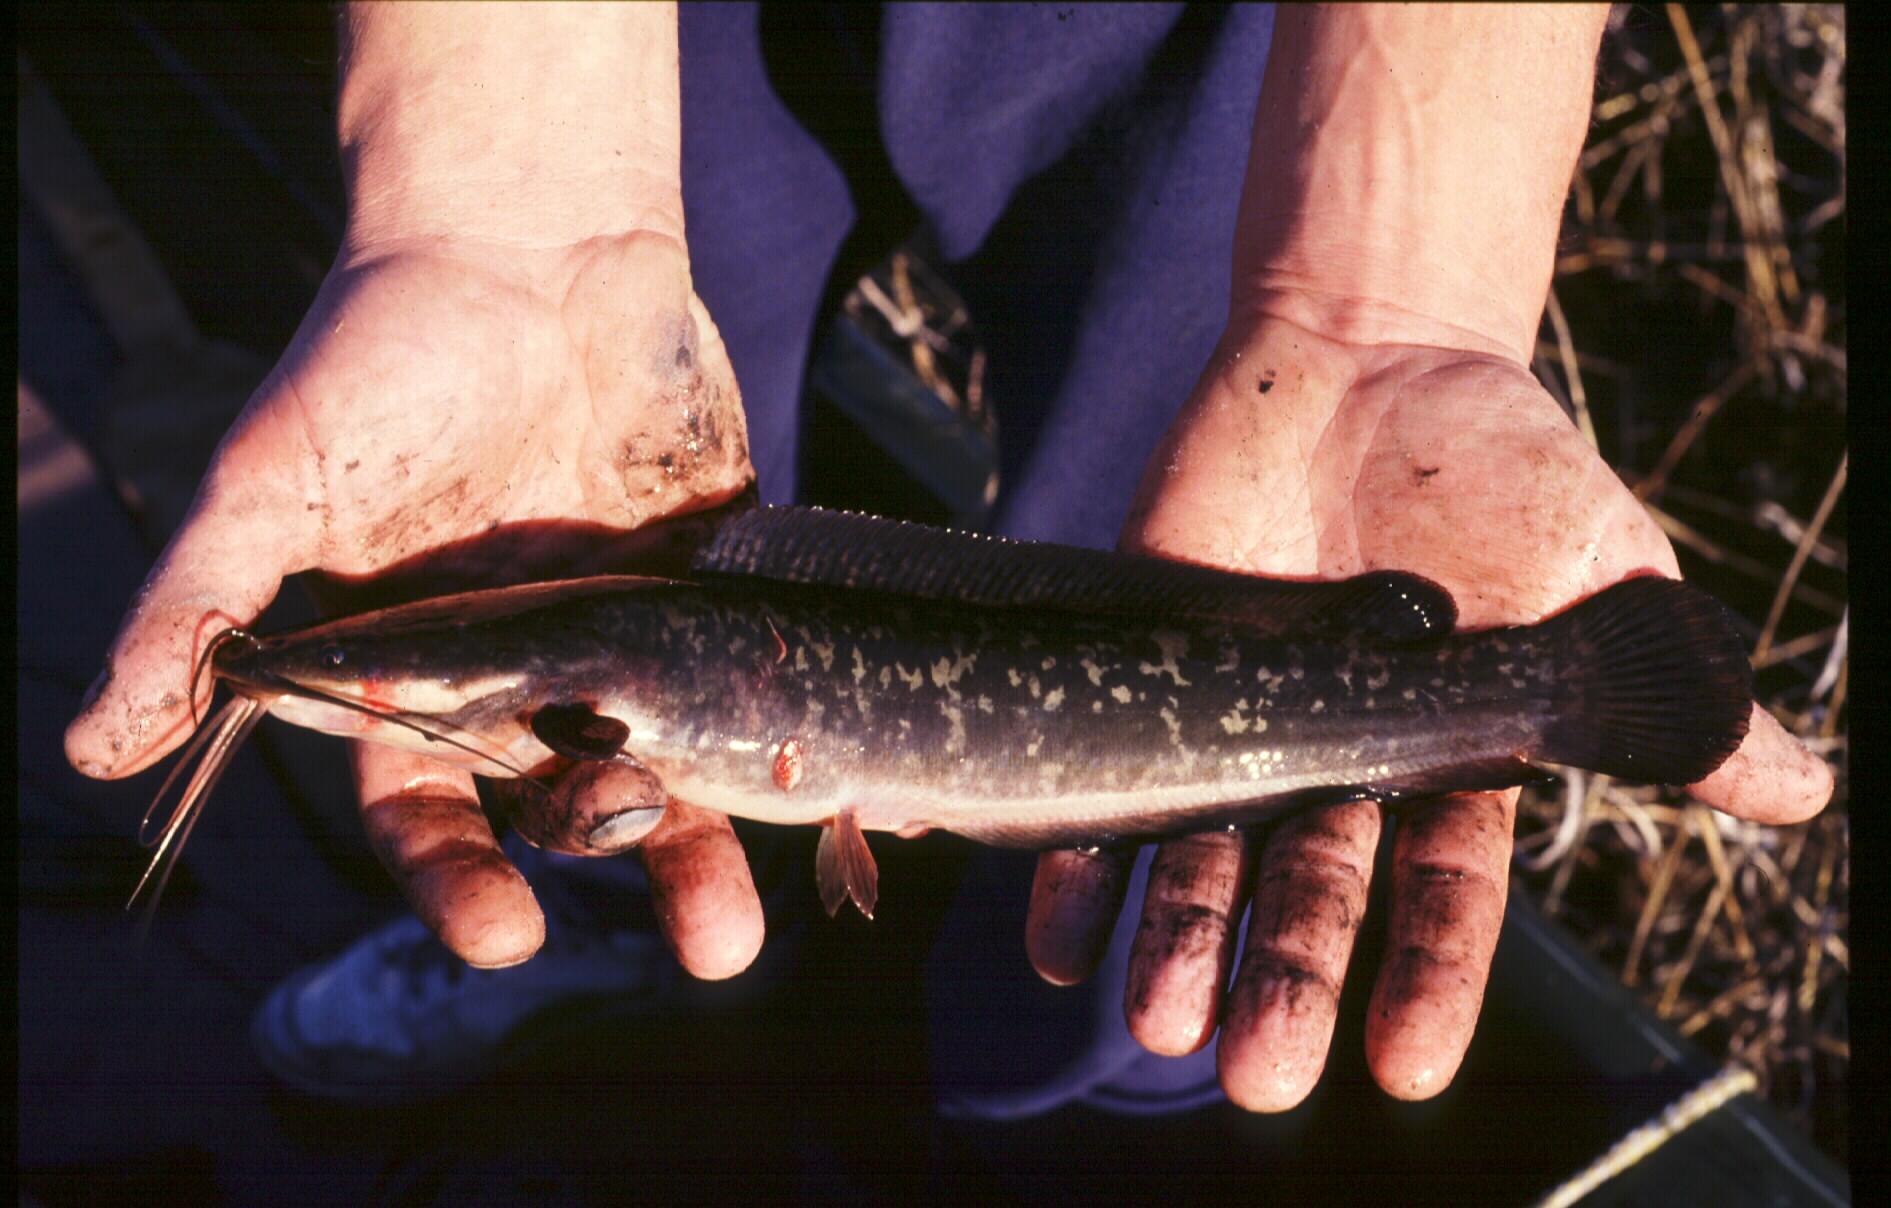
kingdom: Animalia
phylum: Chordata
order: Siluriformes
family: Clariidae
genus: Clarias
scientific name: Clarias ngamensis
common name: Blunt-toothed african catfish
